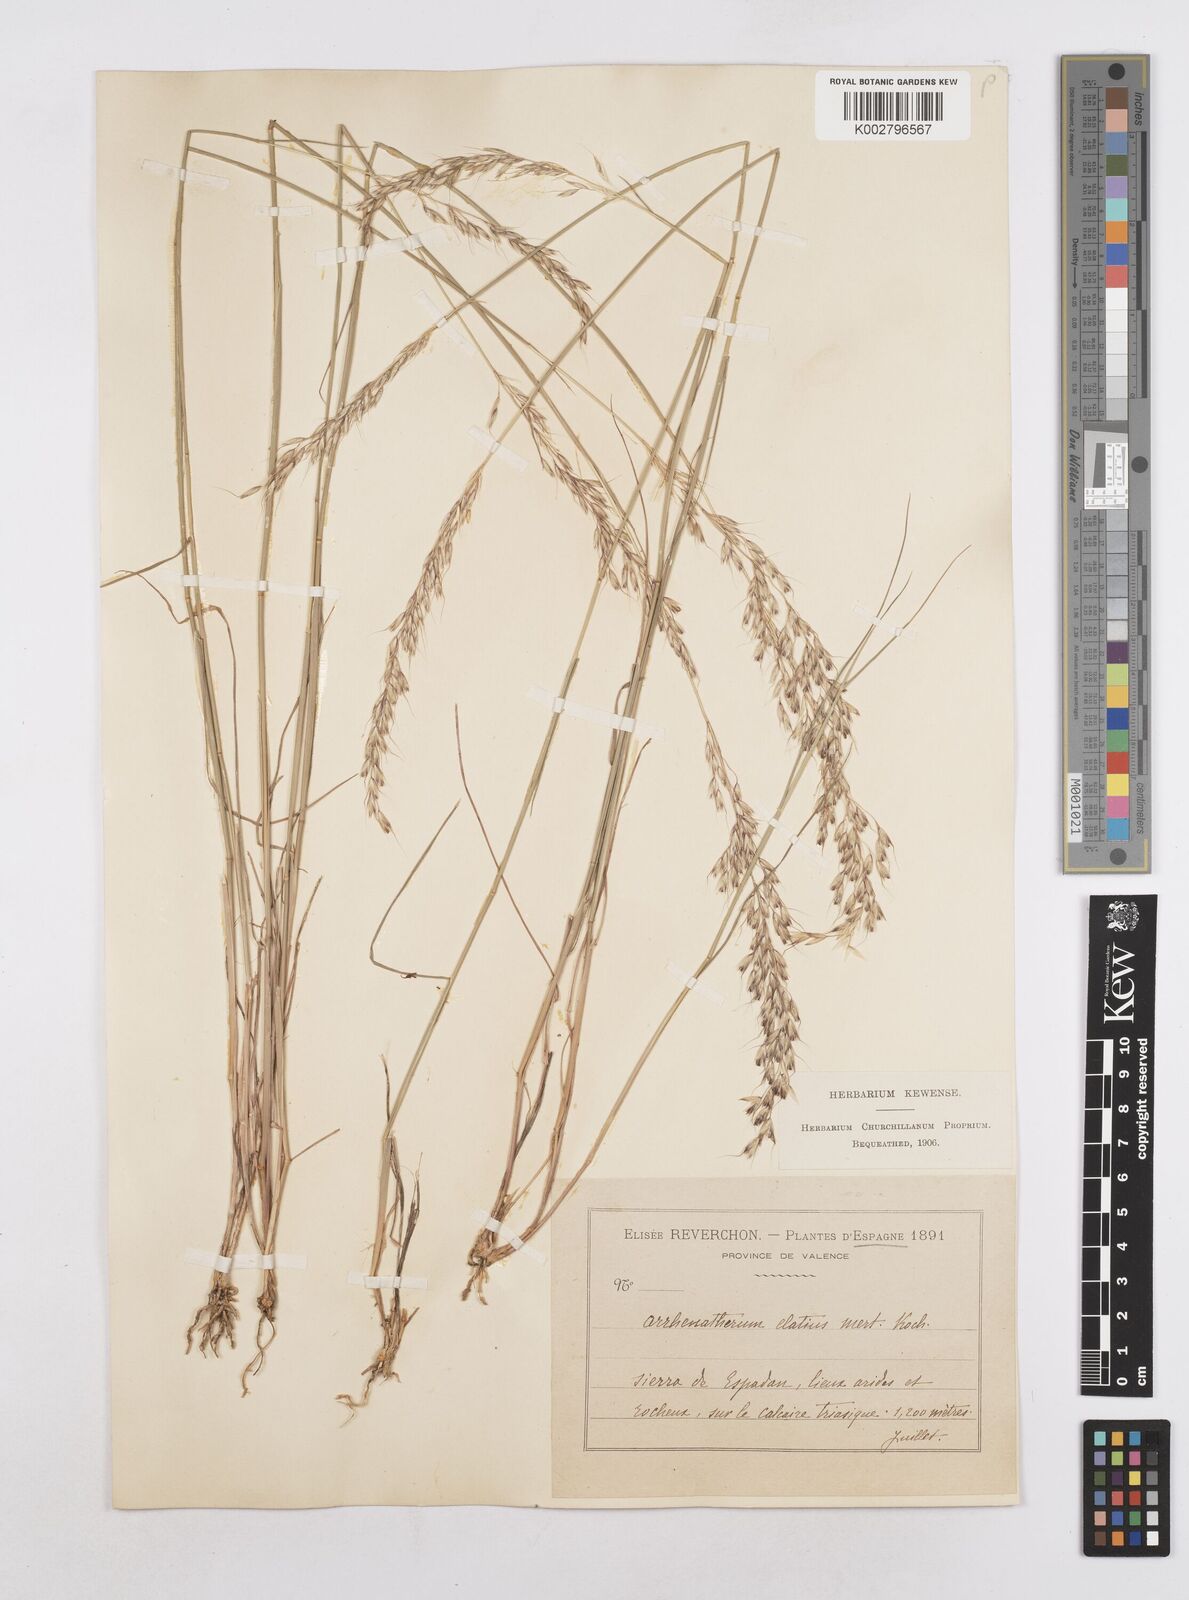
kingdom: Plantae
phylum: Tracheophyta
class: Liliopsida
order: Poales
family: Poaceae
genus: Arrhenatherum
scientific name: Arrhenatherum elatius
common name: Tall oatgrass
